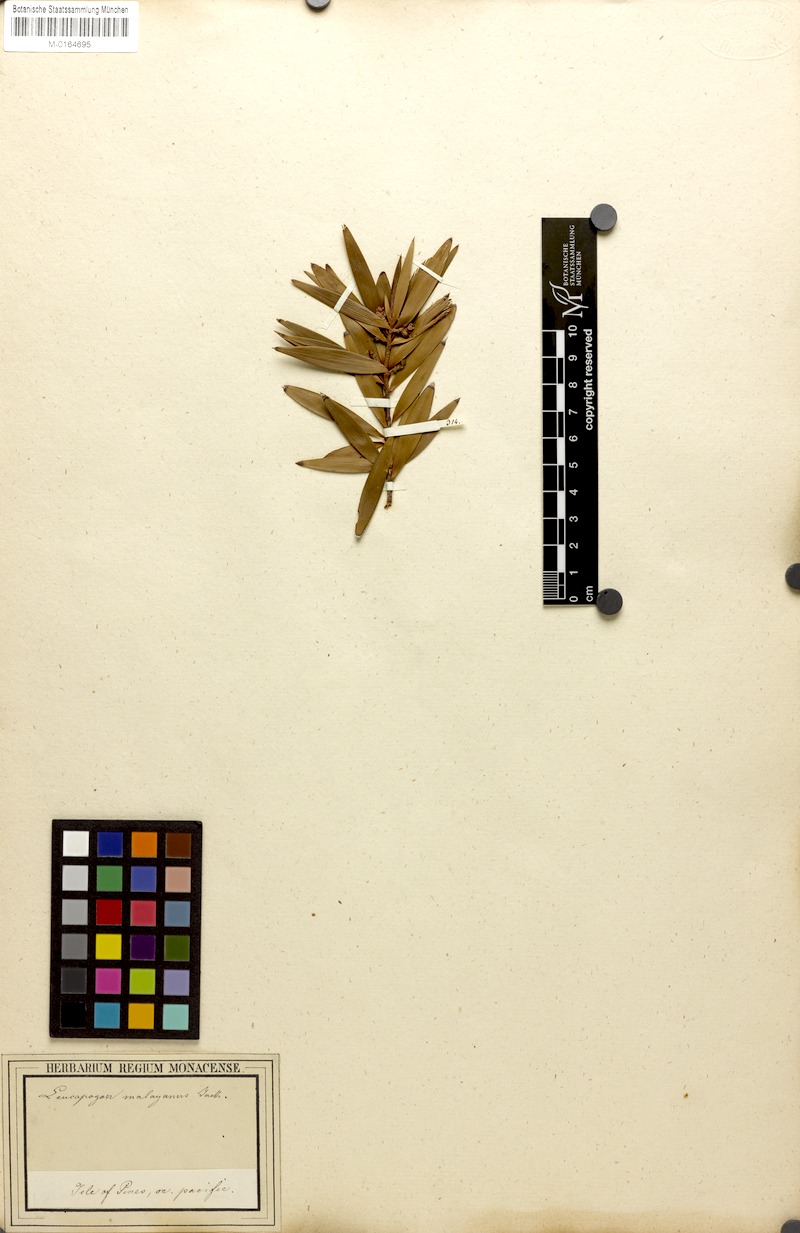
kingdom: Plantae
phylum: Tracheophyta
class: Magnoliopsida
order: Ericales
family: Ericaceae
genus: Styphelia
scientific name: Styphelia malayana
